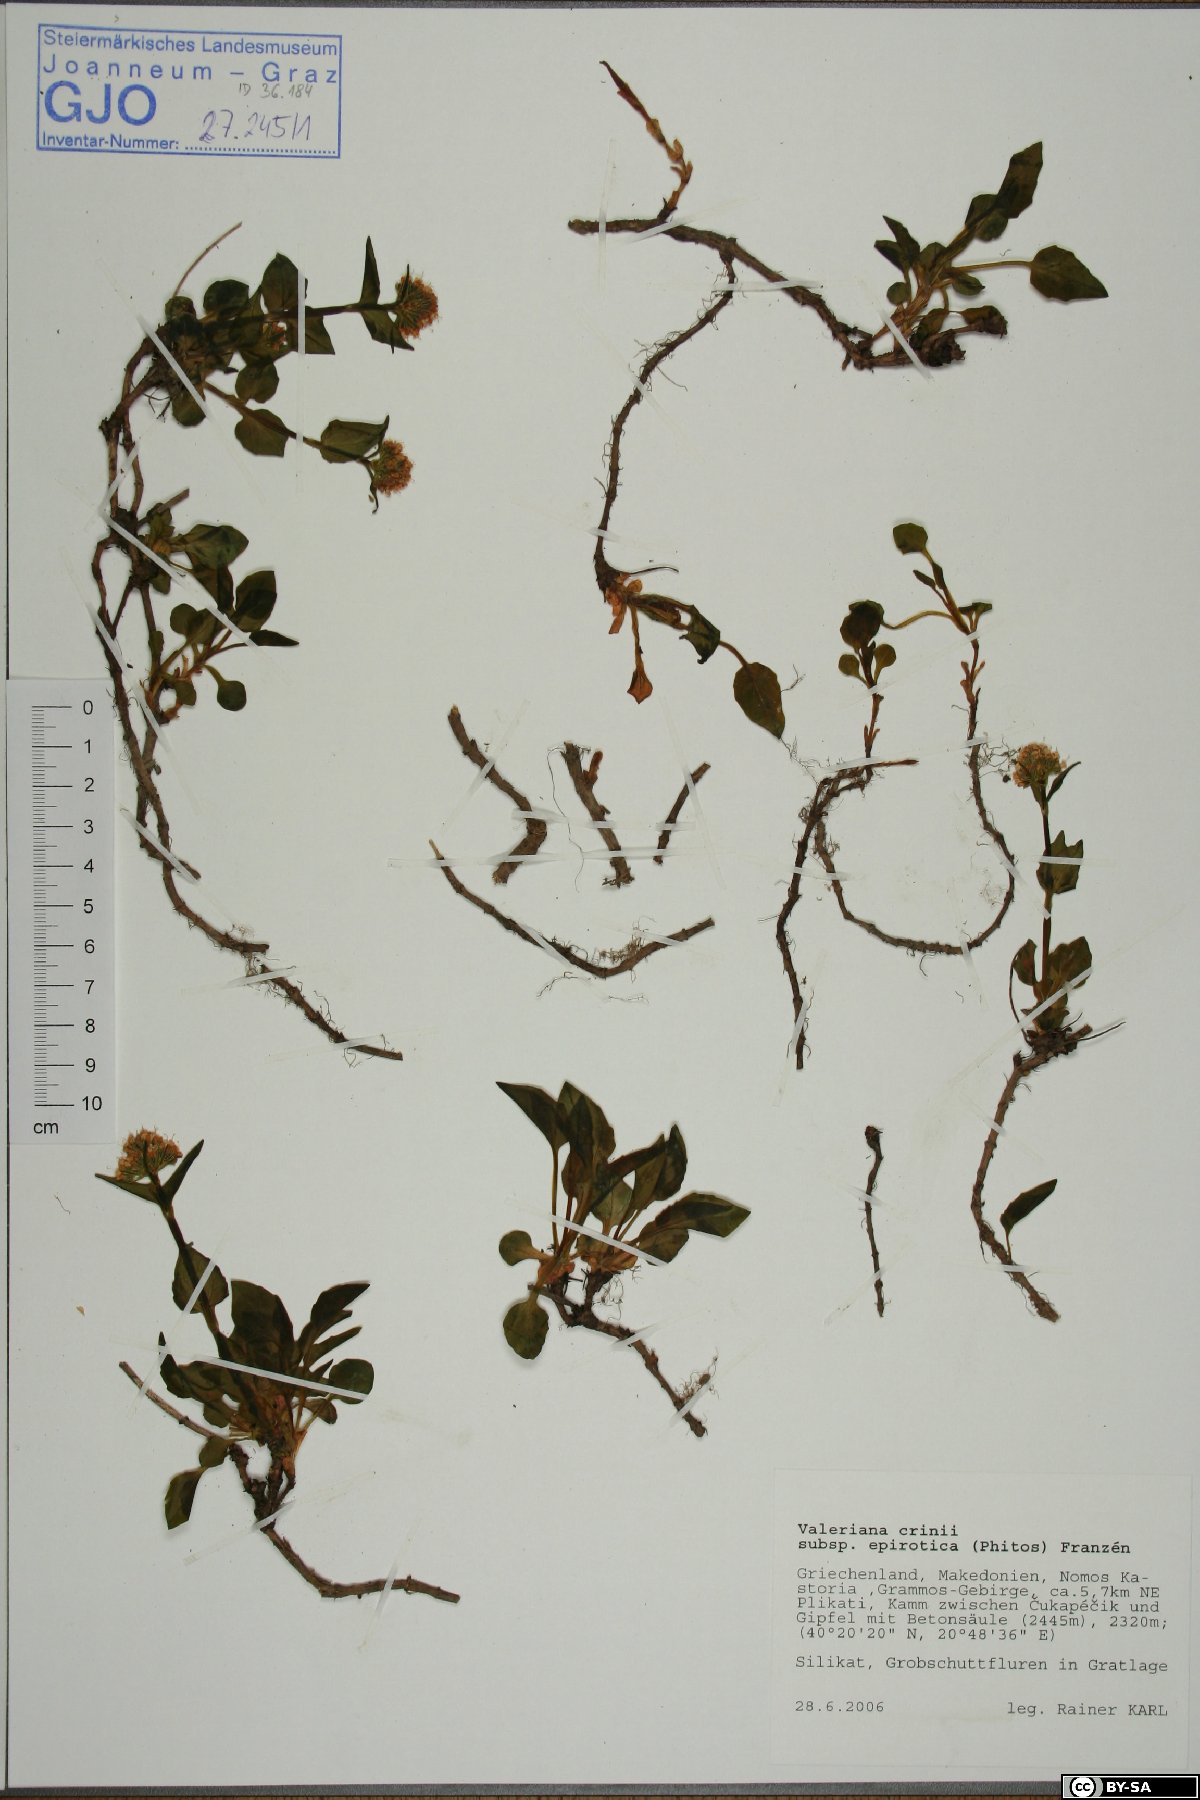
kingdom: Plantae
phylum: Tracheophyta
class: Magnoliopsida
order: Dipsacales
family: Caprifoliaceae
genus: Valeriana
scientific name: Valeriana crinii
